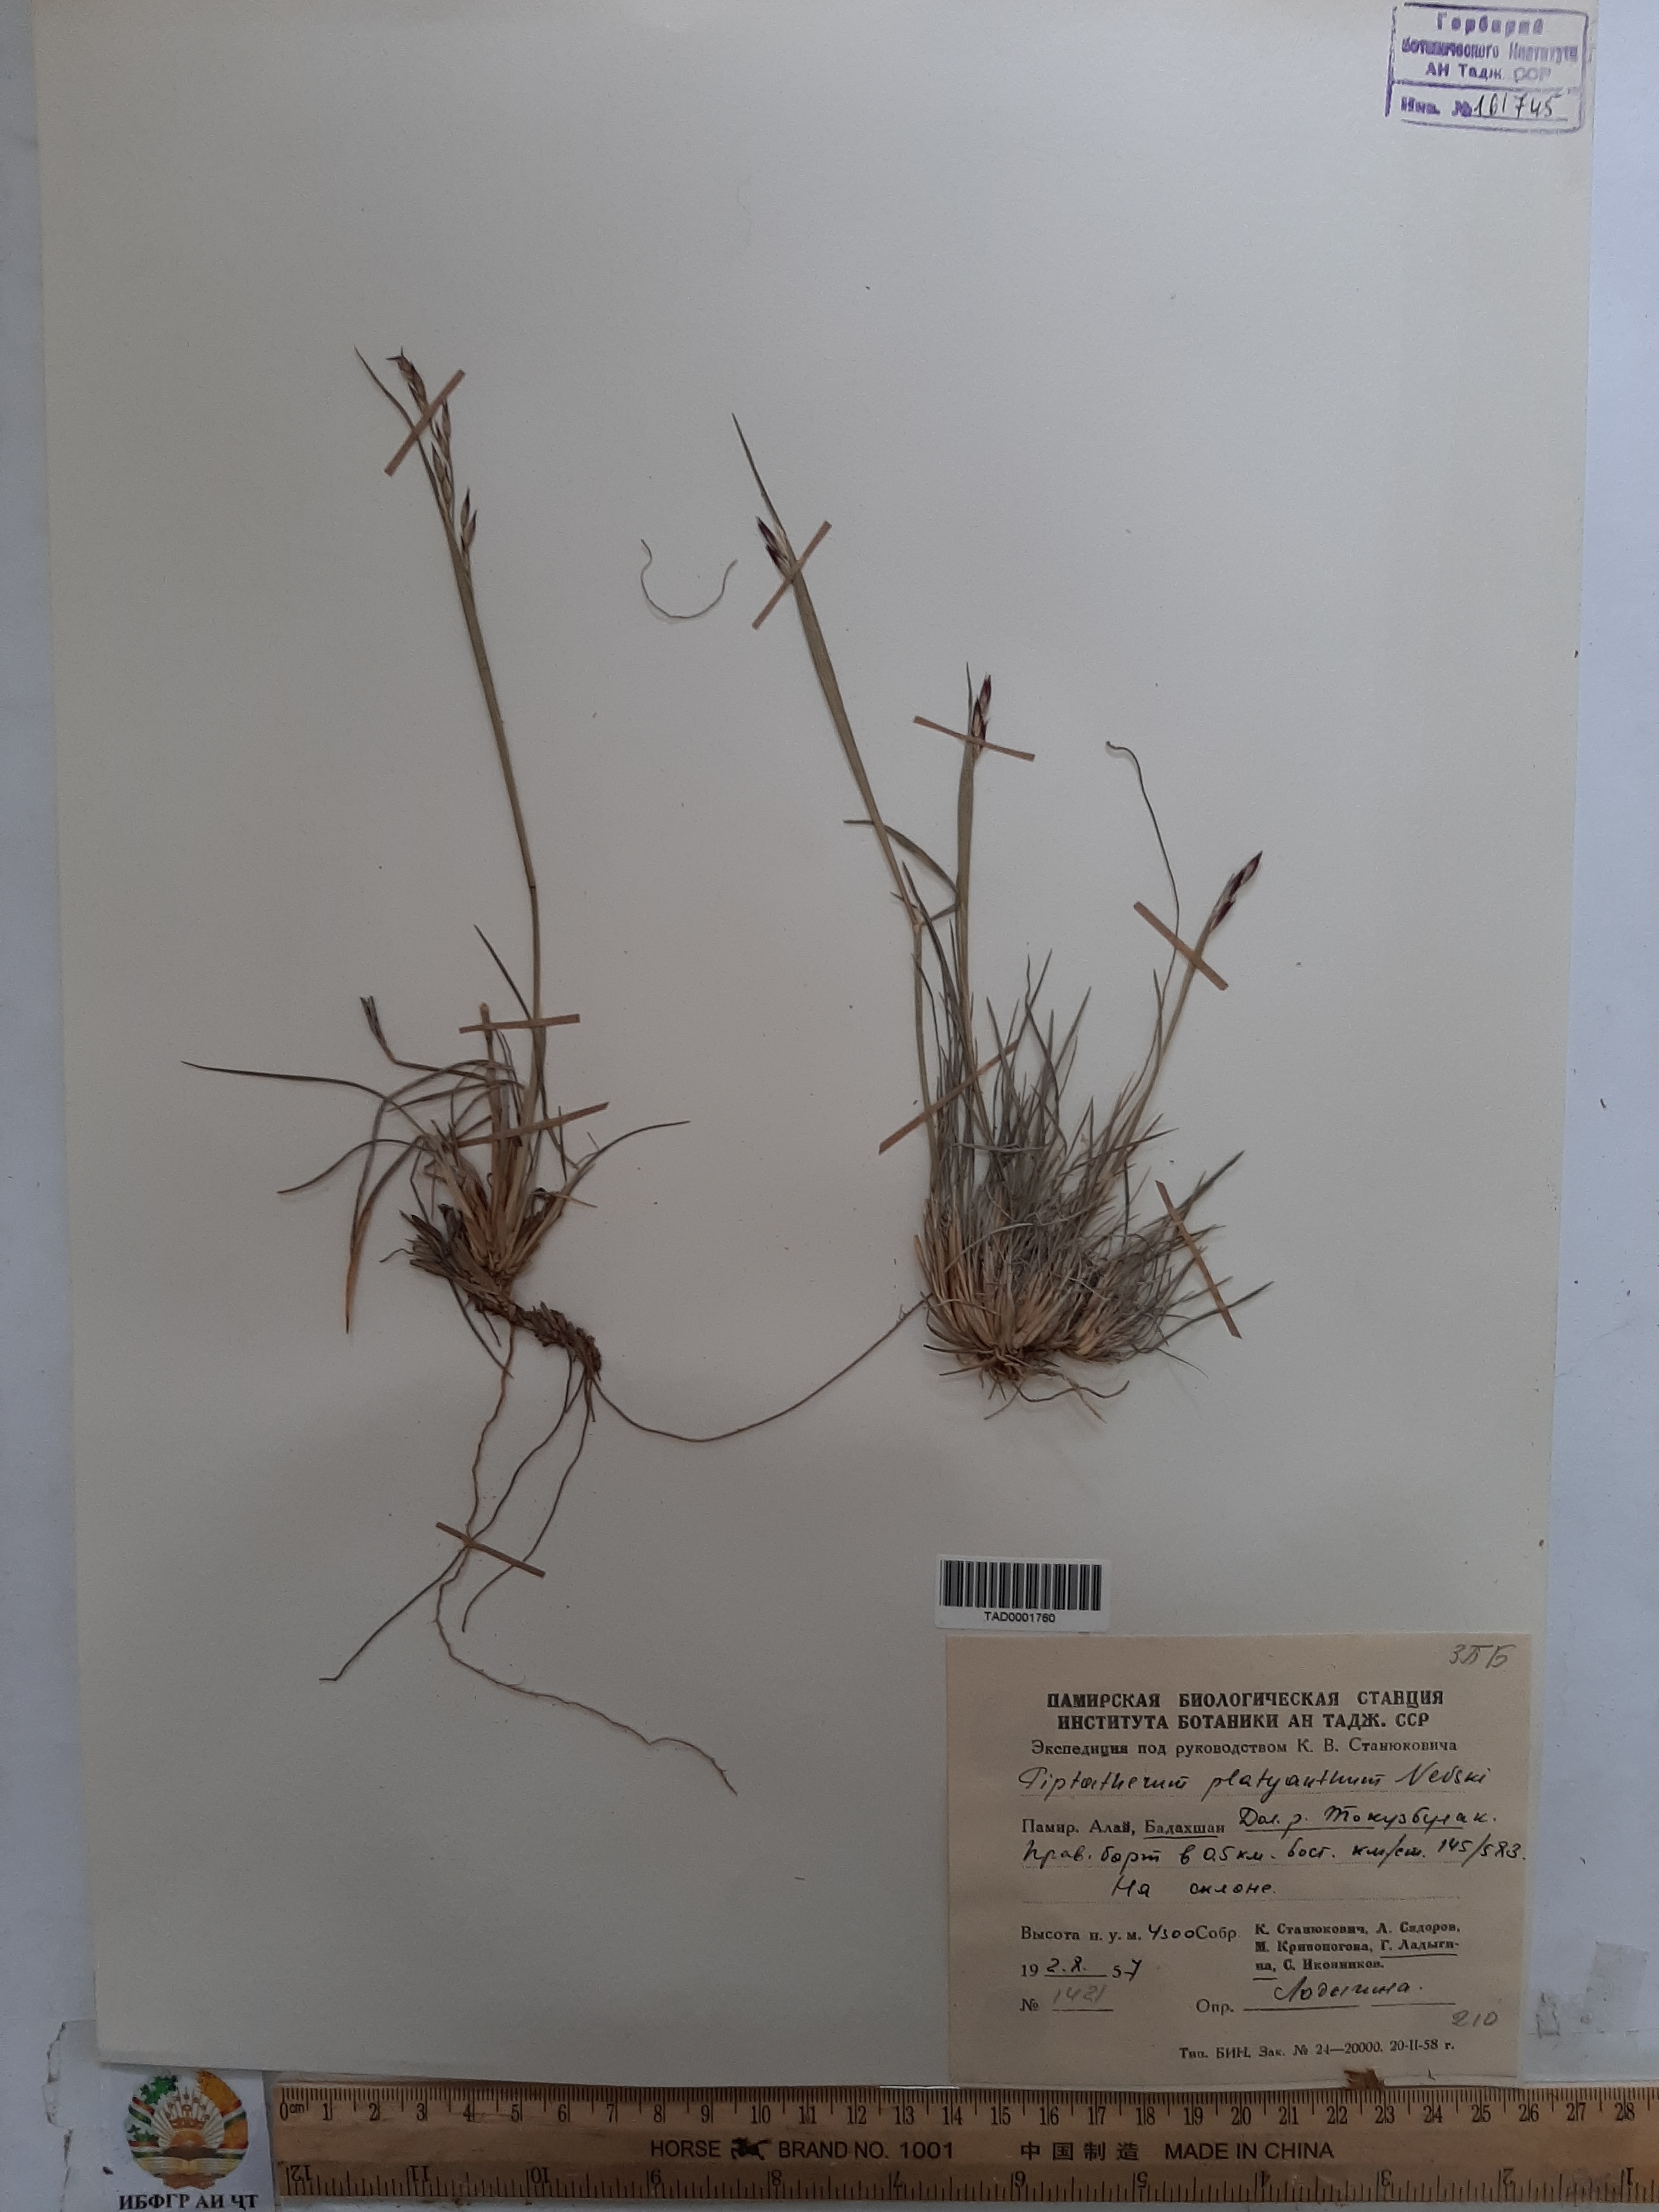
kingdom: Plantae
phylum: Tracheophyta
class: Liliopsida
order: Poales
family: Poaceae
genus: Piptatherum
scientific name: Piptatherum platyanthum
